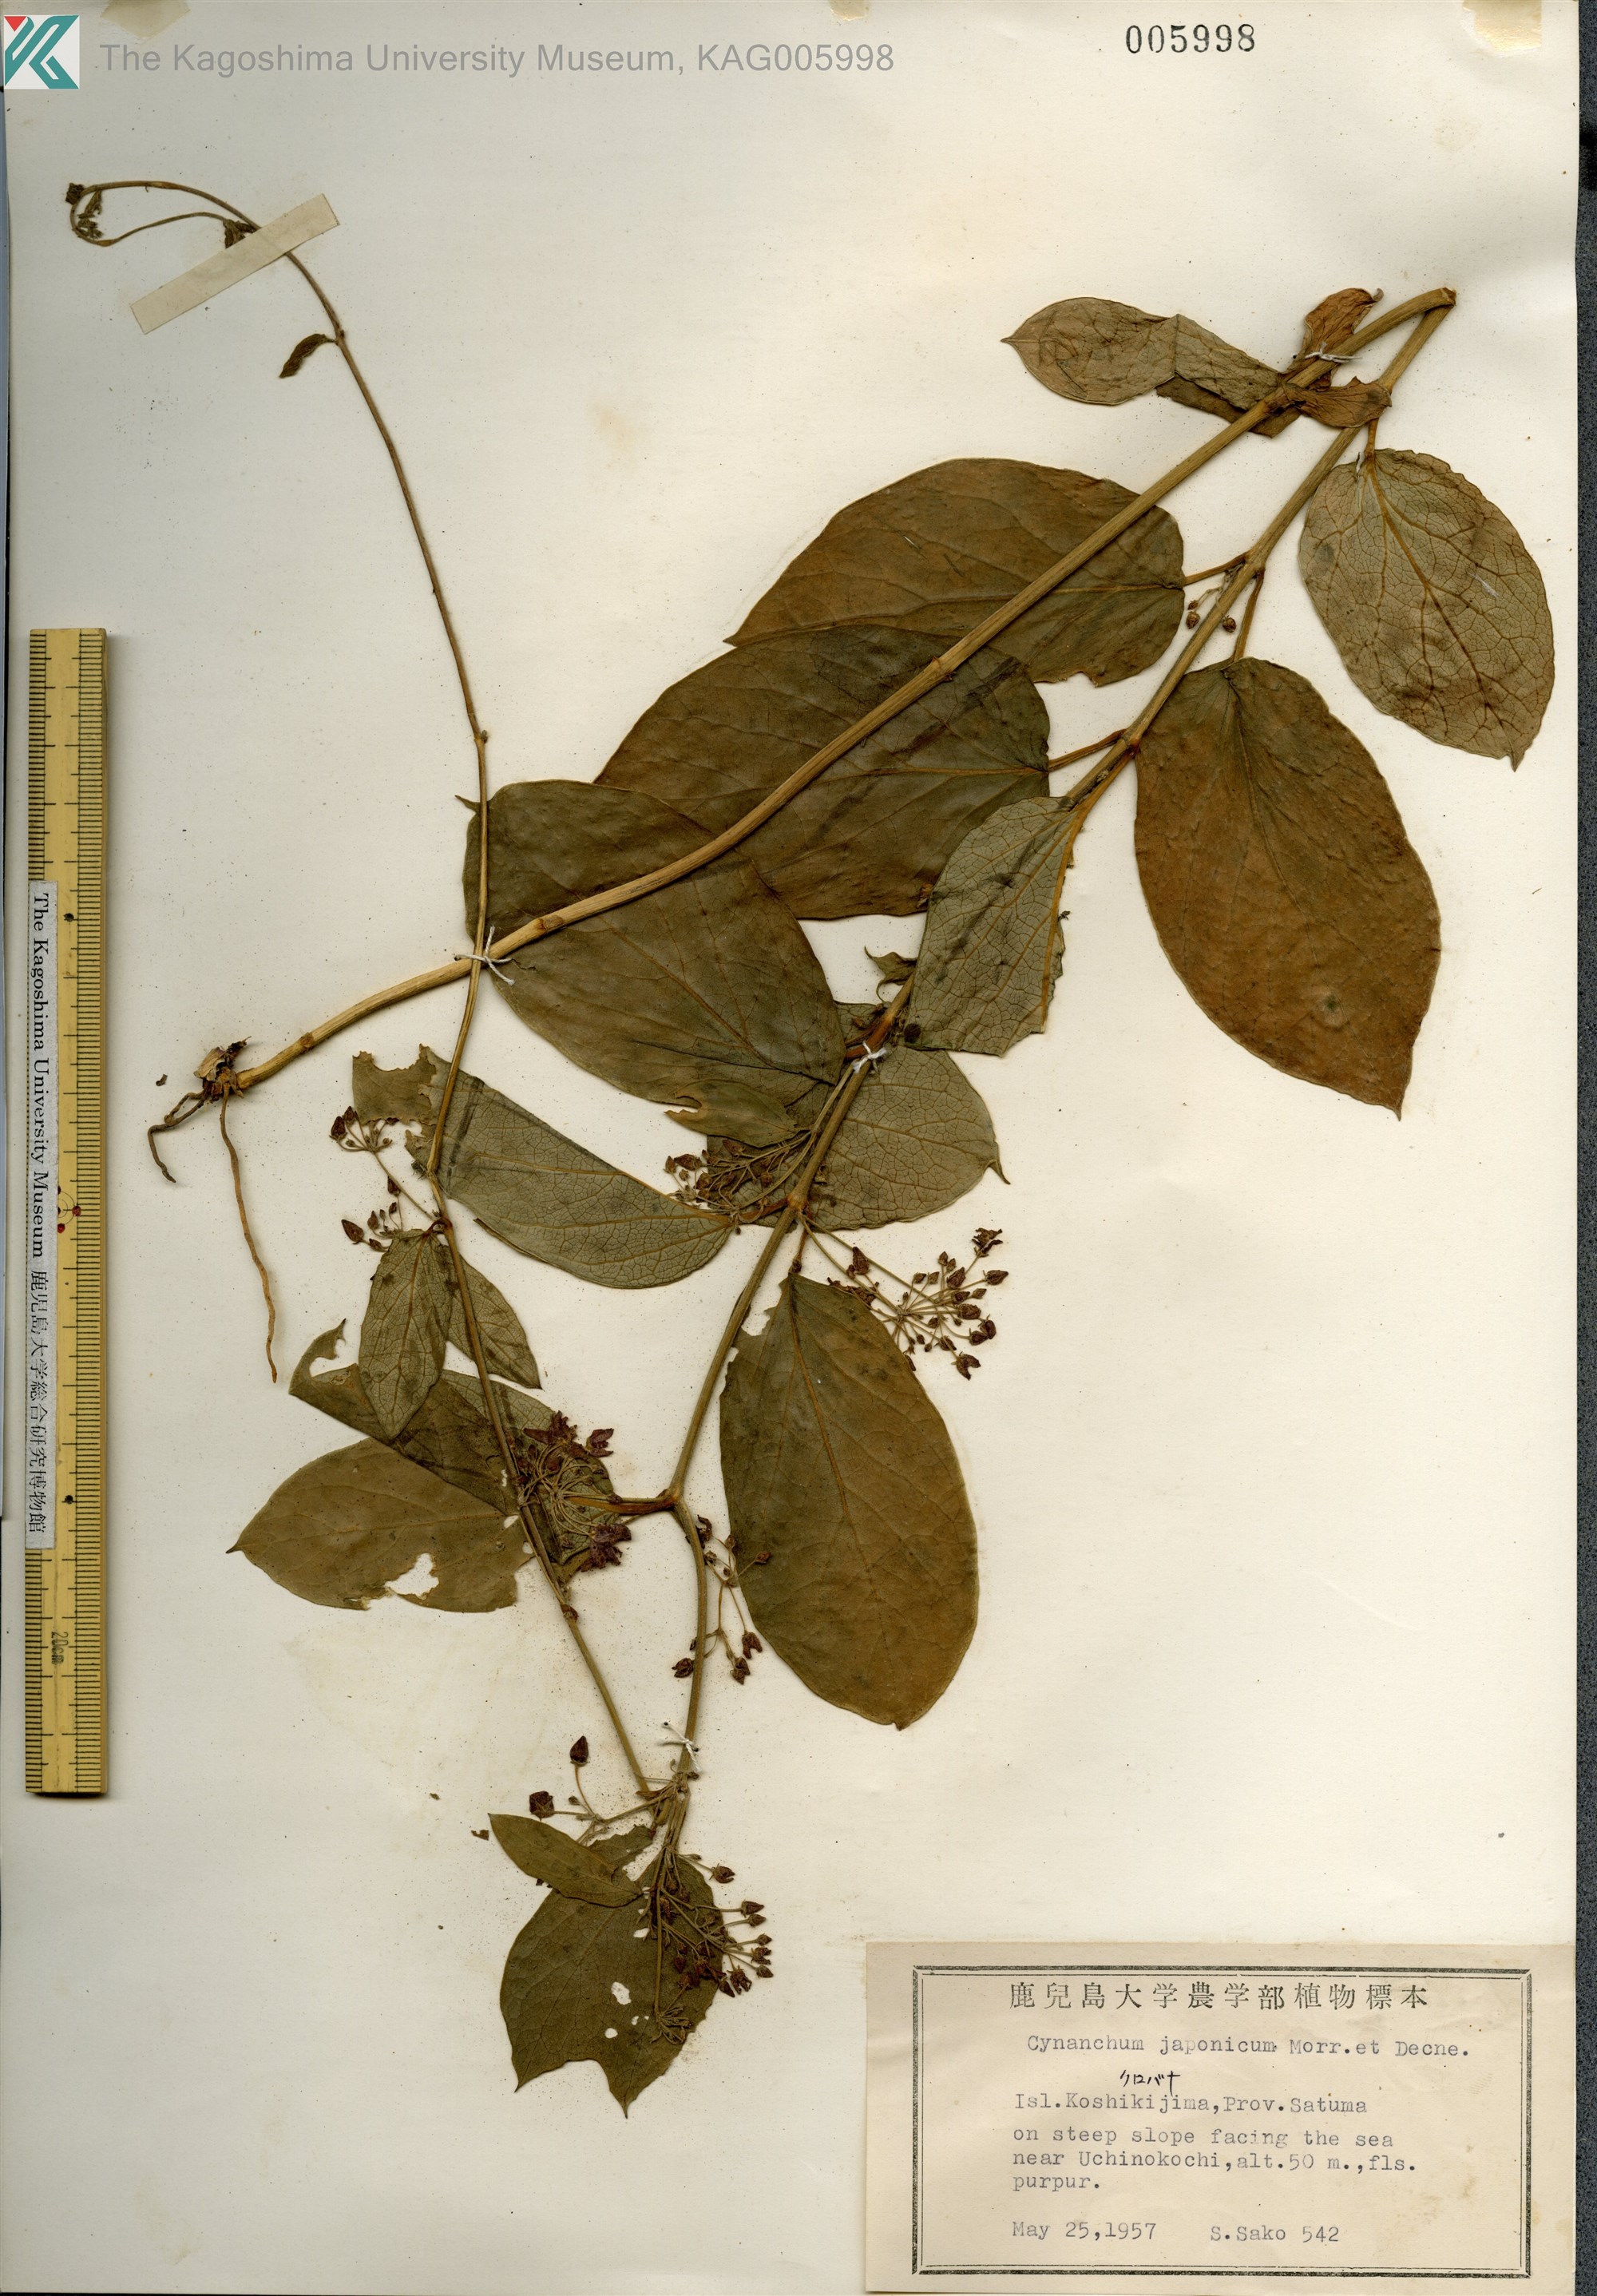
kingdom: Plantae
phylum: Tracheophyta
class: Magnoliopsida
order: Gentianales
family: Apocynaceae
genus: Vincetoxicum
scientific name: Vincetoxicum japonicum
